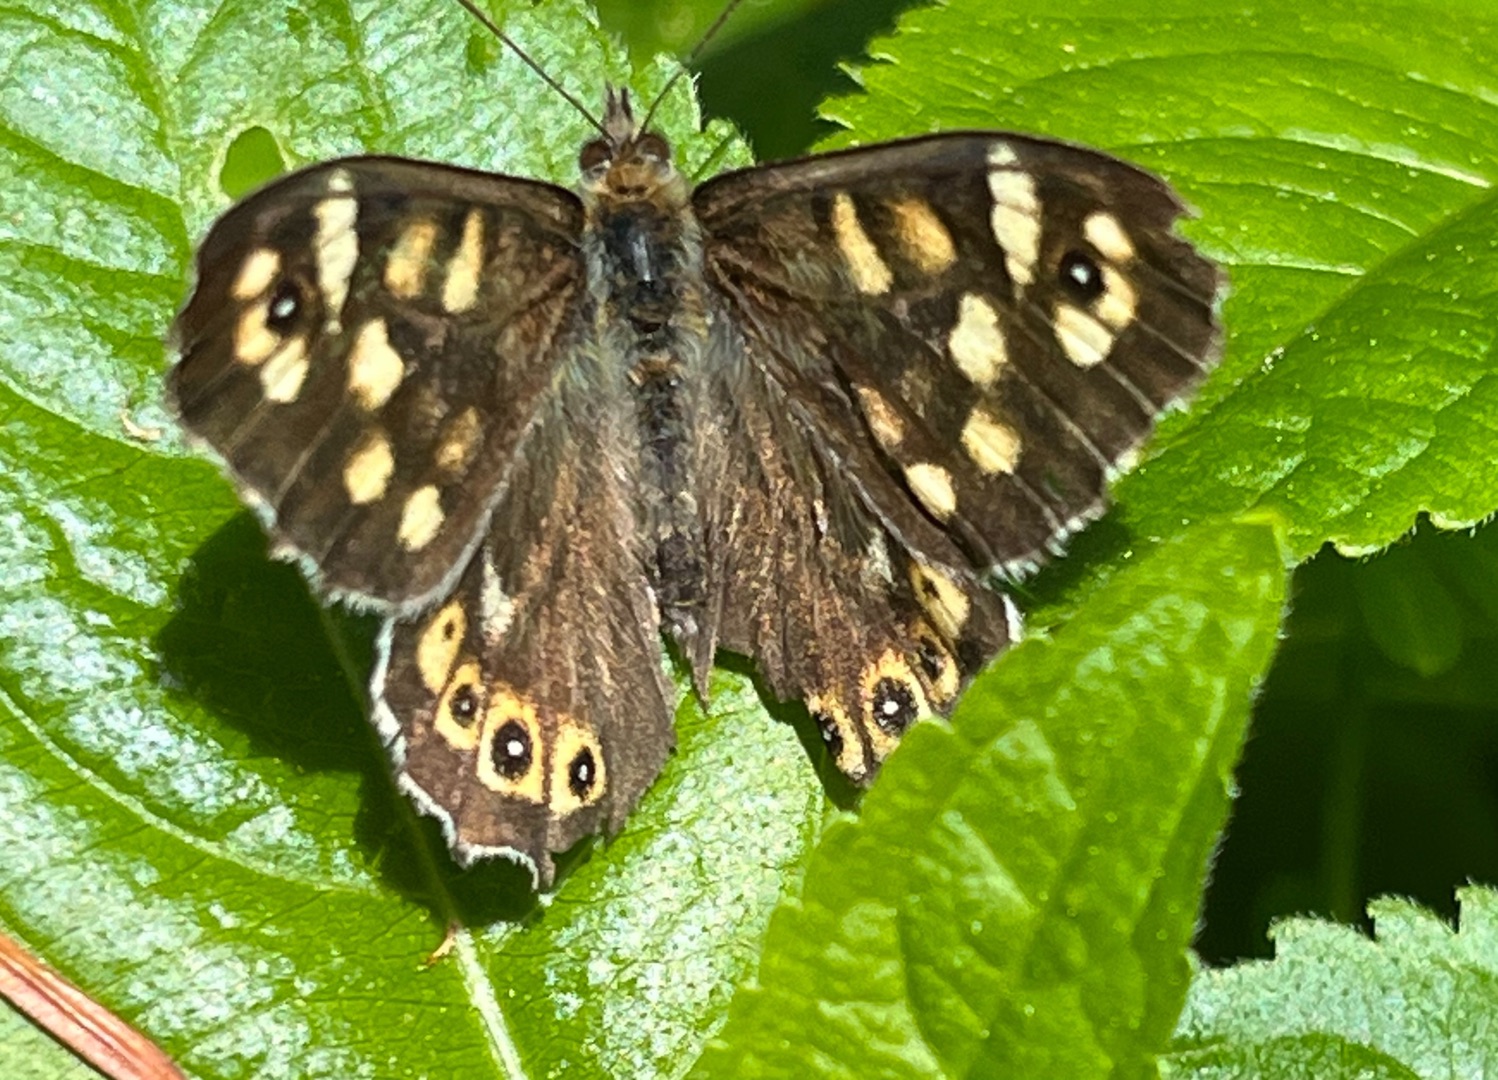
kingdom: Animalia
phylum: Arthropoda
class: Insecta
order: Lepidoptera
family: Nymphalidae
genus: Pararge
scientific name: Pararge aegeria
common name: Skovrandøje
